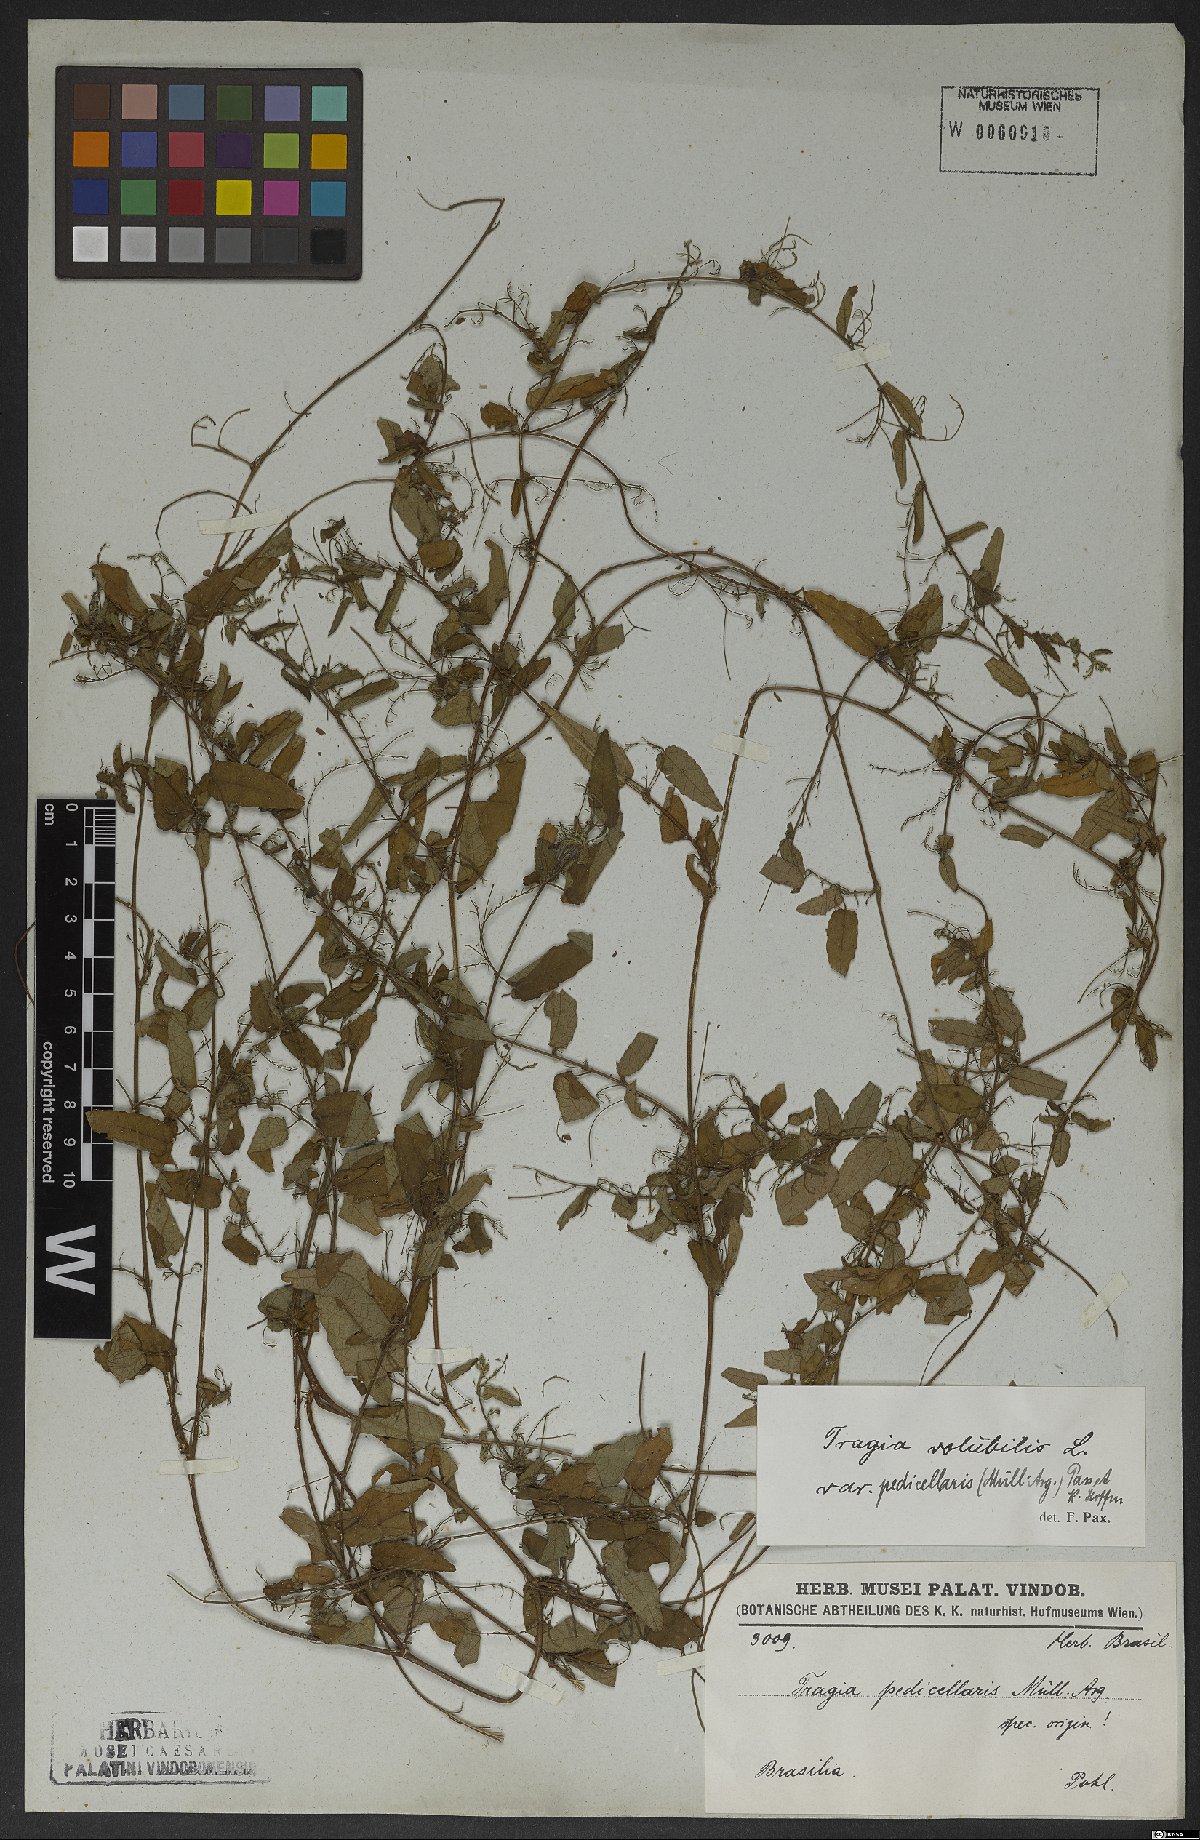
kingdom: Plantae
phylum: Tracheophyta
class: Magnoliopsida
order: Malpighiales
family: Euphorbiaceae
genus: Tragia
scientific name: Tragia volubilis
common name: Twining cow-itch
